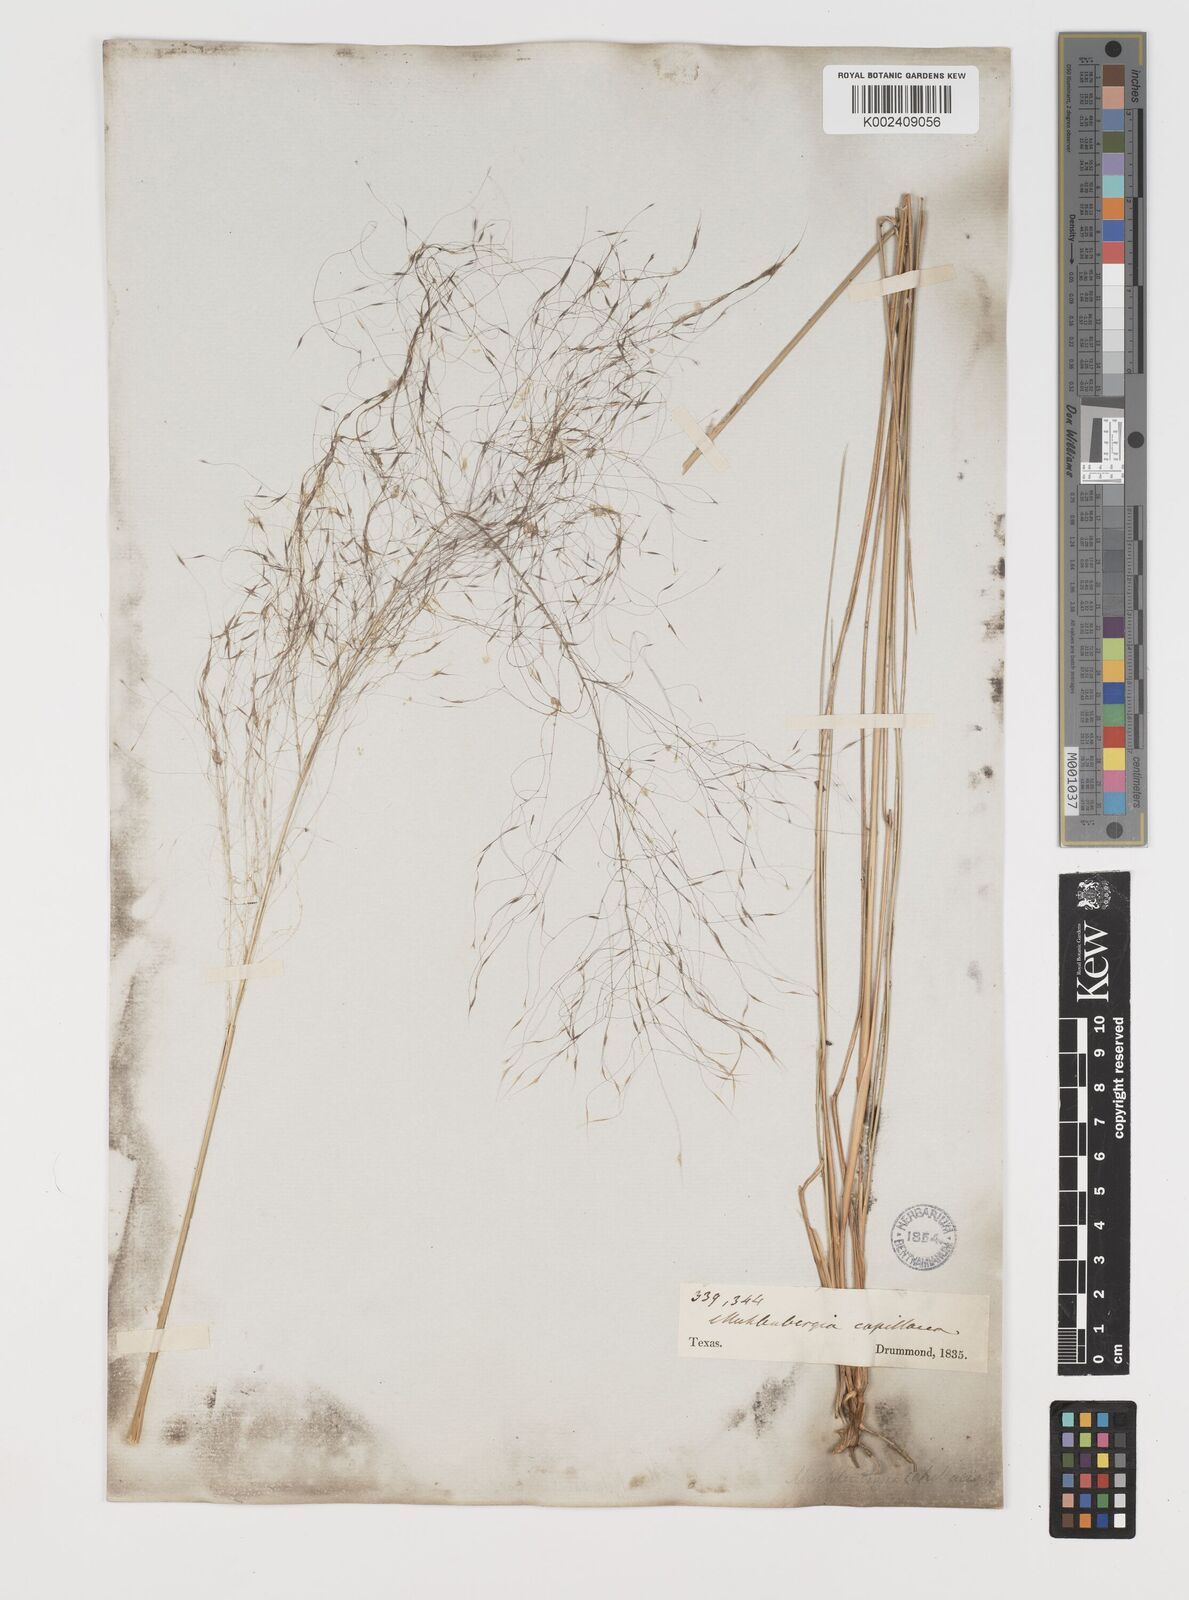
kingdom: Plantae
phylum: Tracheophyta
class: Liliopsida
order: Poales
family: Poaceae
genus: Muhlenbergia
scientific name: Muhlenbergia capillaris
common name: Purple grass
